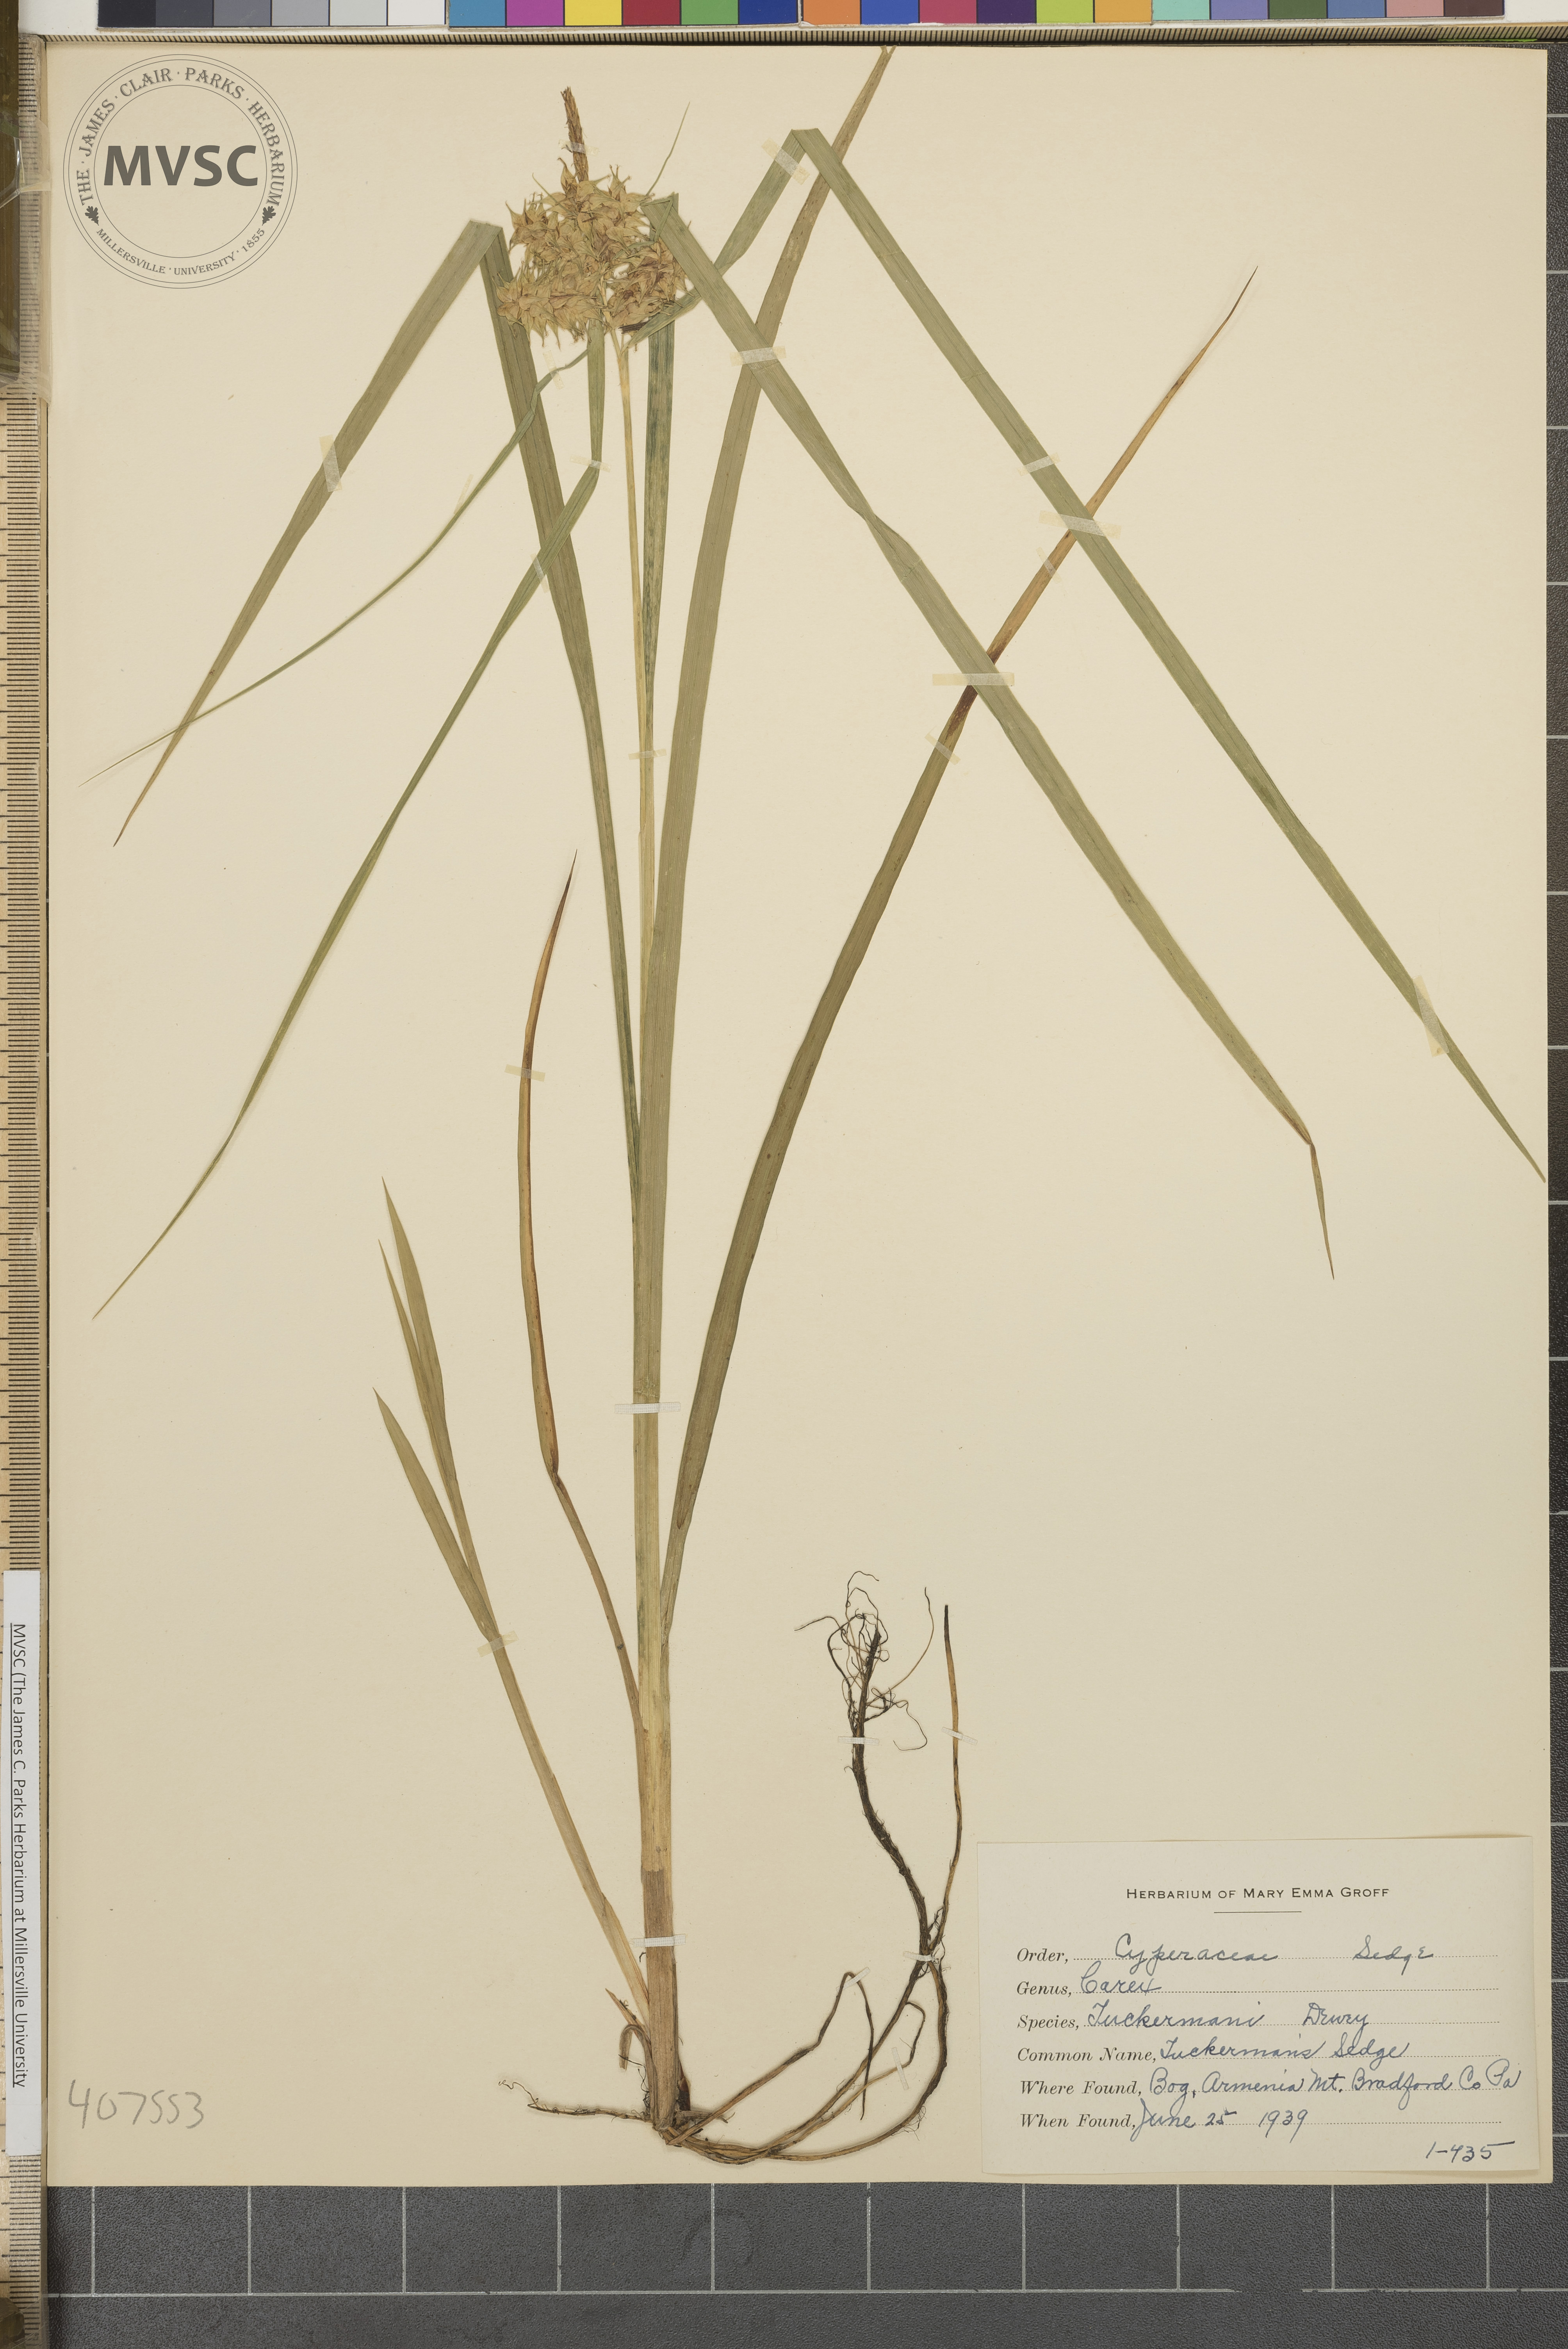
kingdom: Plantae
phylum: Tracheophyta
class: Liliopsida
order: Poales
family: Cyperaceae
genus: Carex
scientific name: Carex tuckermanii
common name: Tuckerman's Sedge
